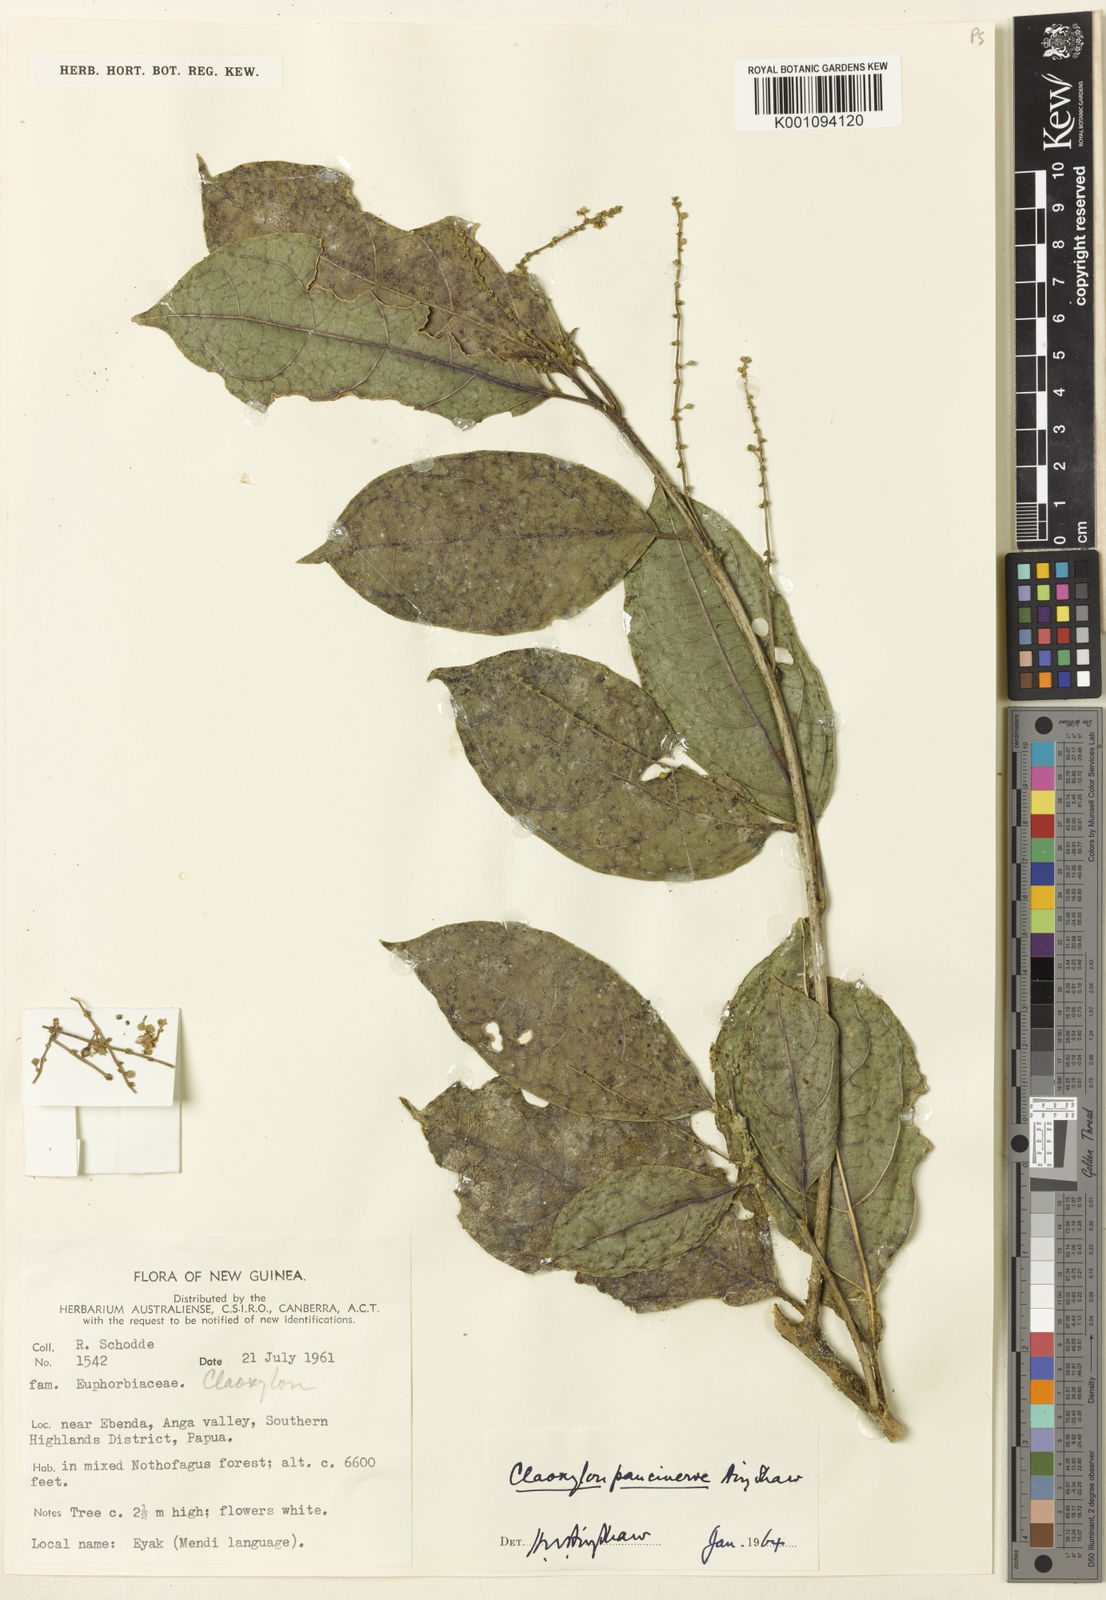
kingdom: Plantae
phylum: Tracheophyta
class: Magnoliopsida
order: Malpighiales
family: Euphorbiaceae
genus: Claoxylon
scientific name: Claoxylon paucinerve
